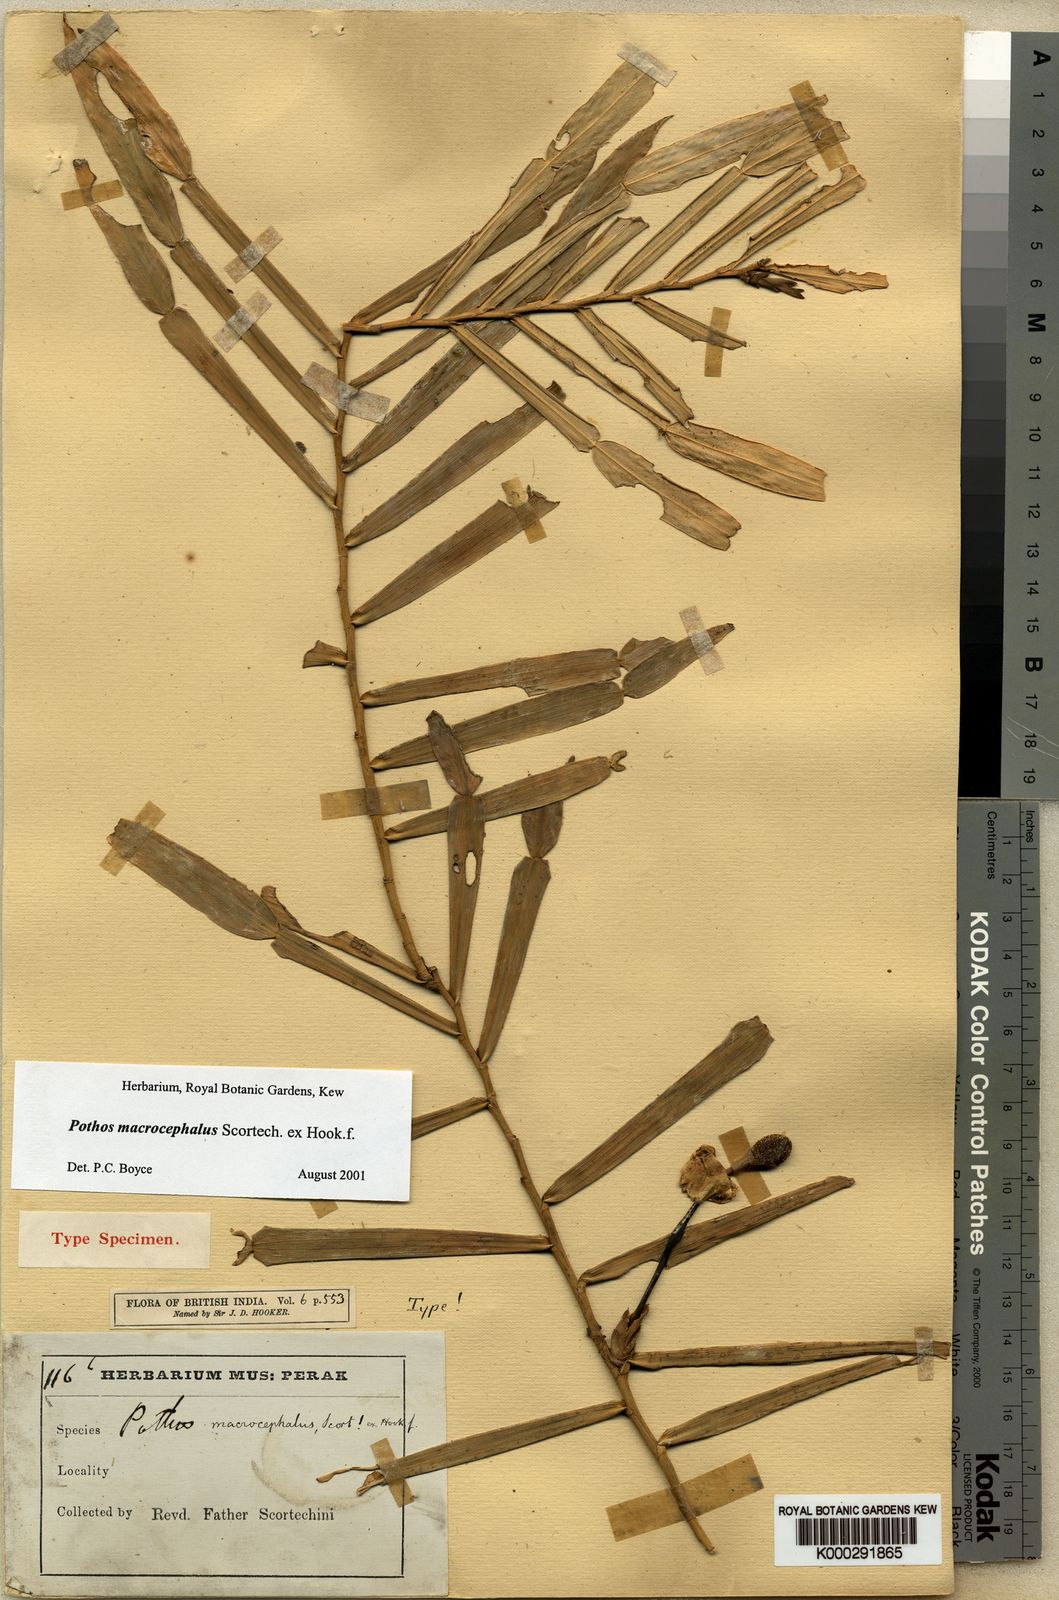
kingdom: Plantae
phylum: Tracheophyta
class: Liliopsida
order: Alismatales
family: Araceae
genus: Pothos
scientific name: Pothos macrocephalus
